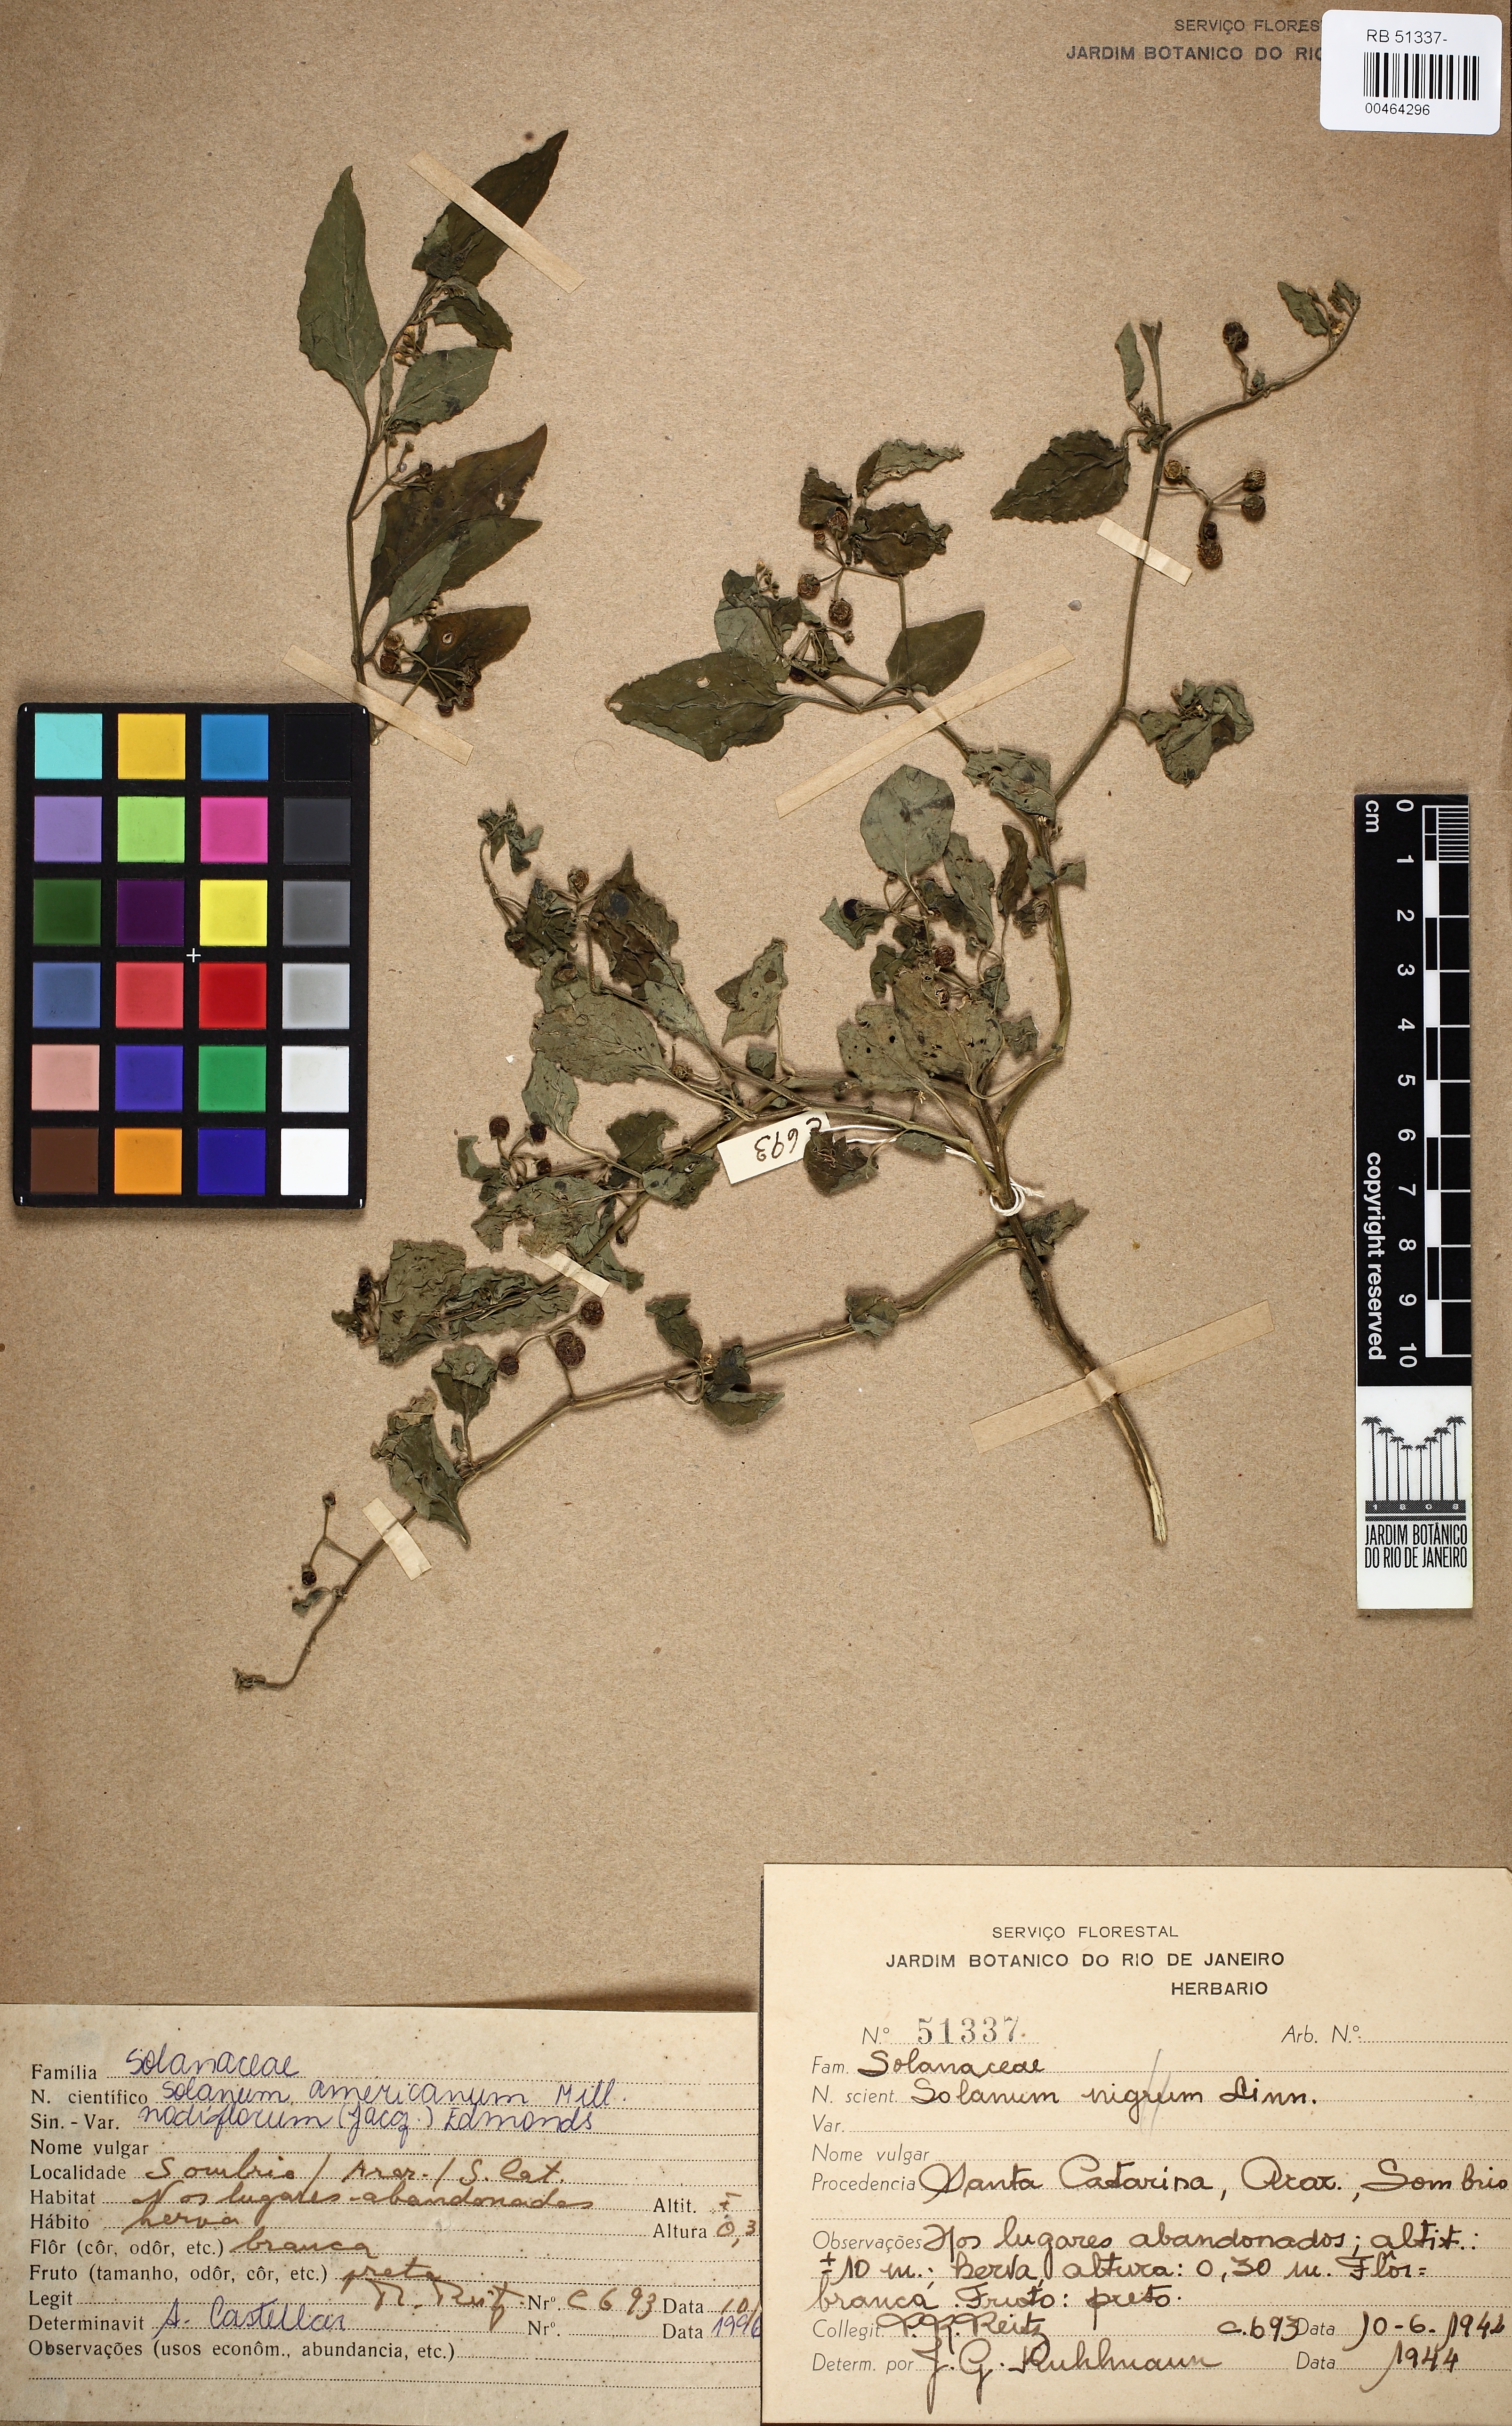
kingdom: Plantae
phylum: Tracheophyta
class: Magnoliopsida
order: Solanales
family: Solanaceae
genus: Solanum
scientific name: Solanum americanum
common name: American black nightshade
